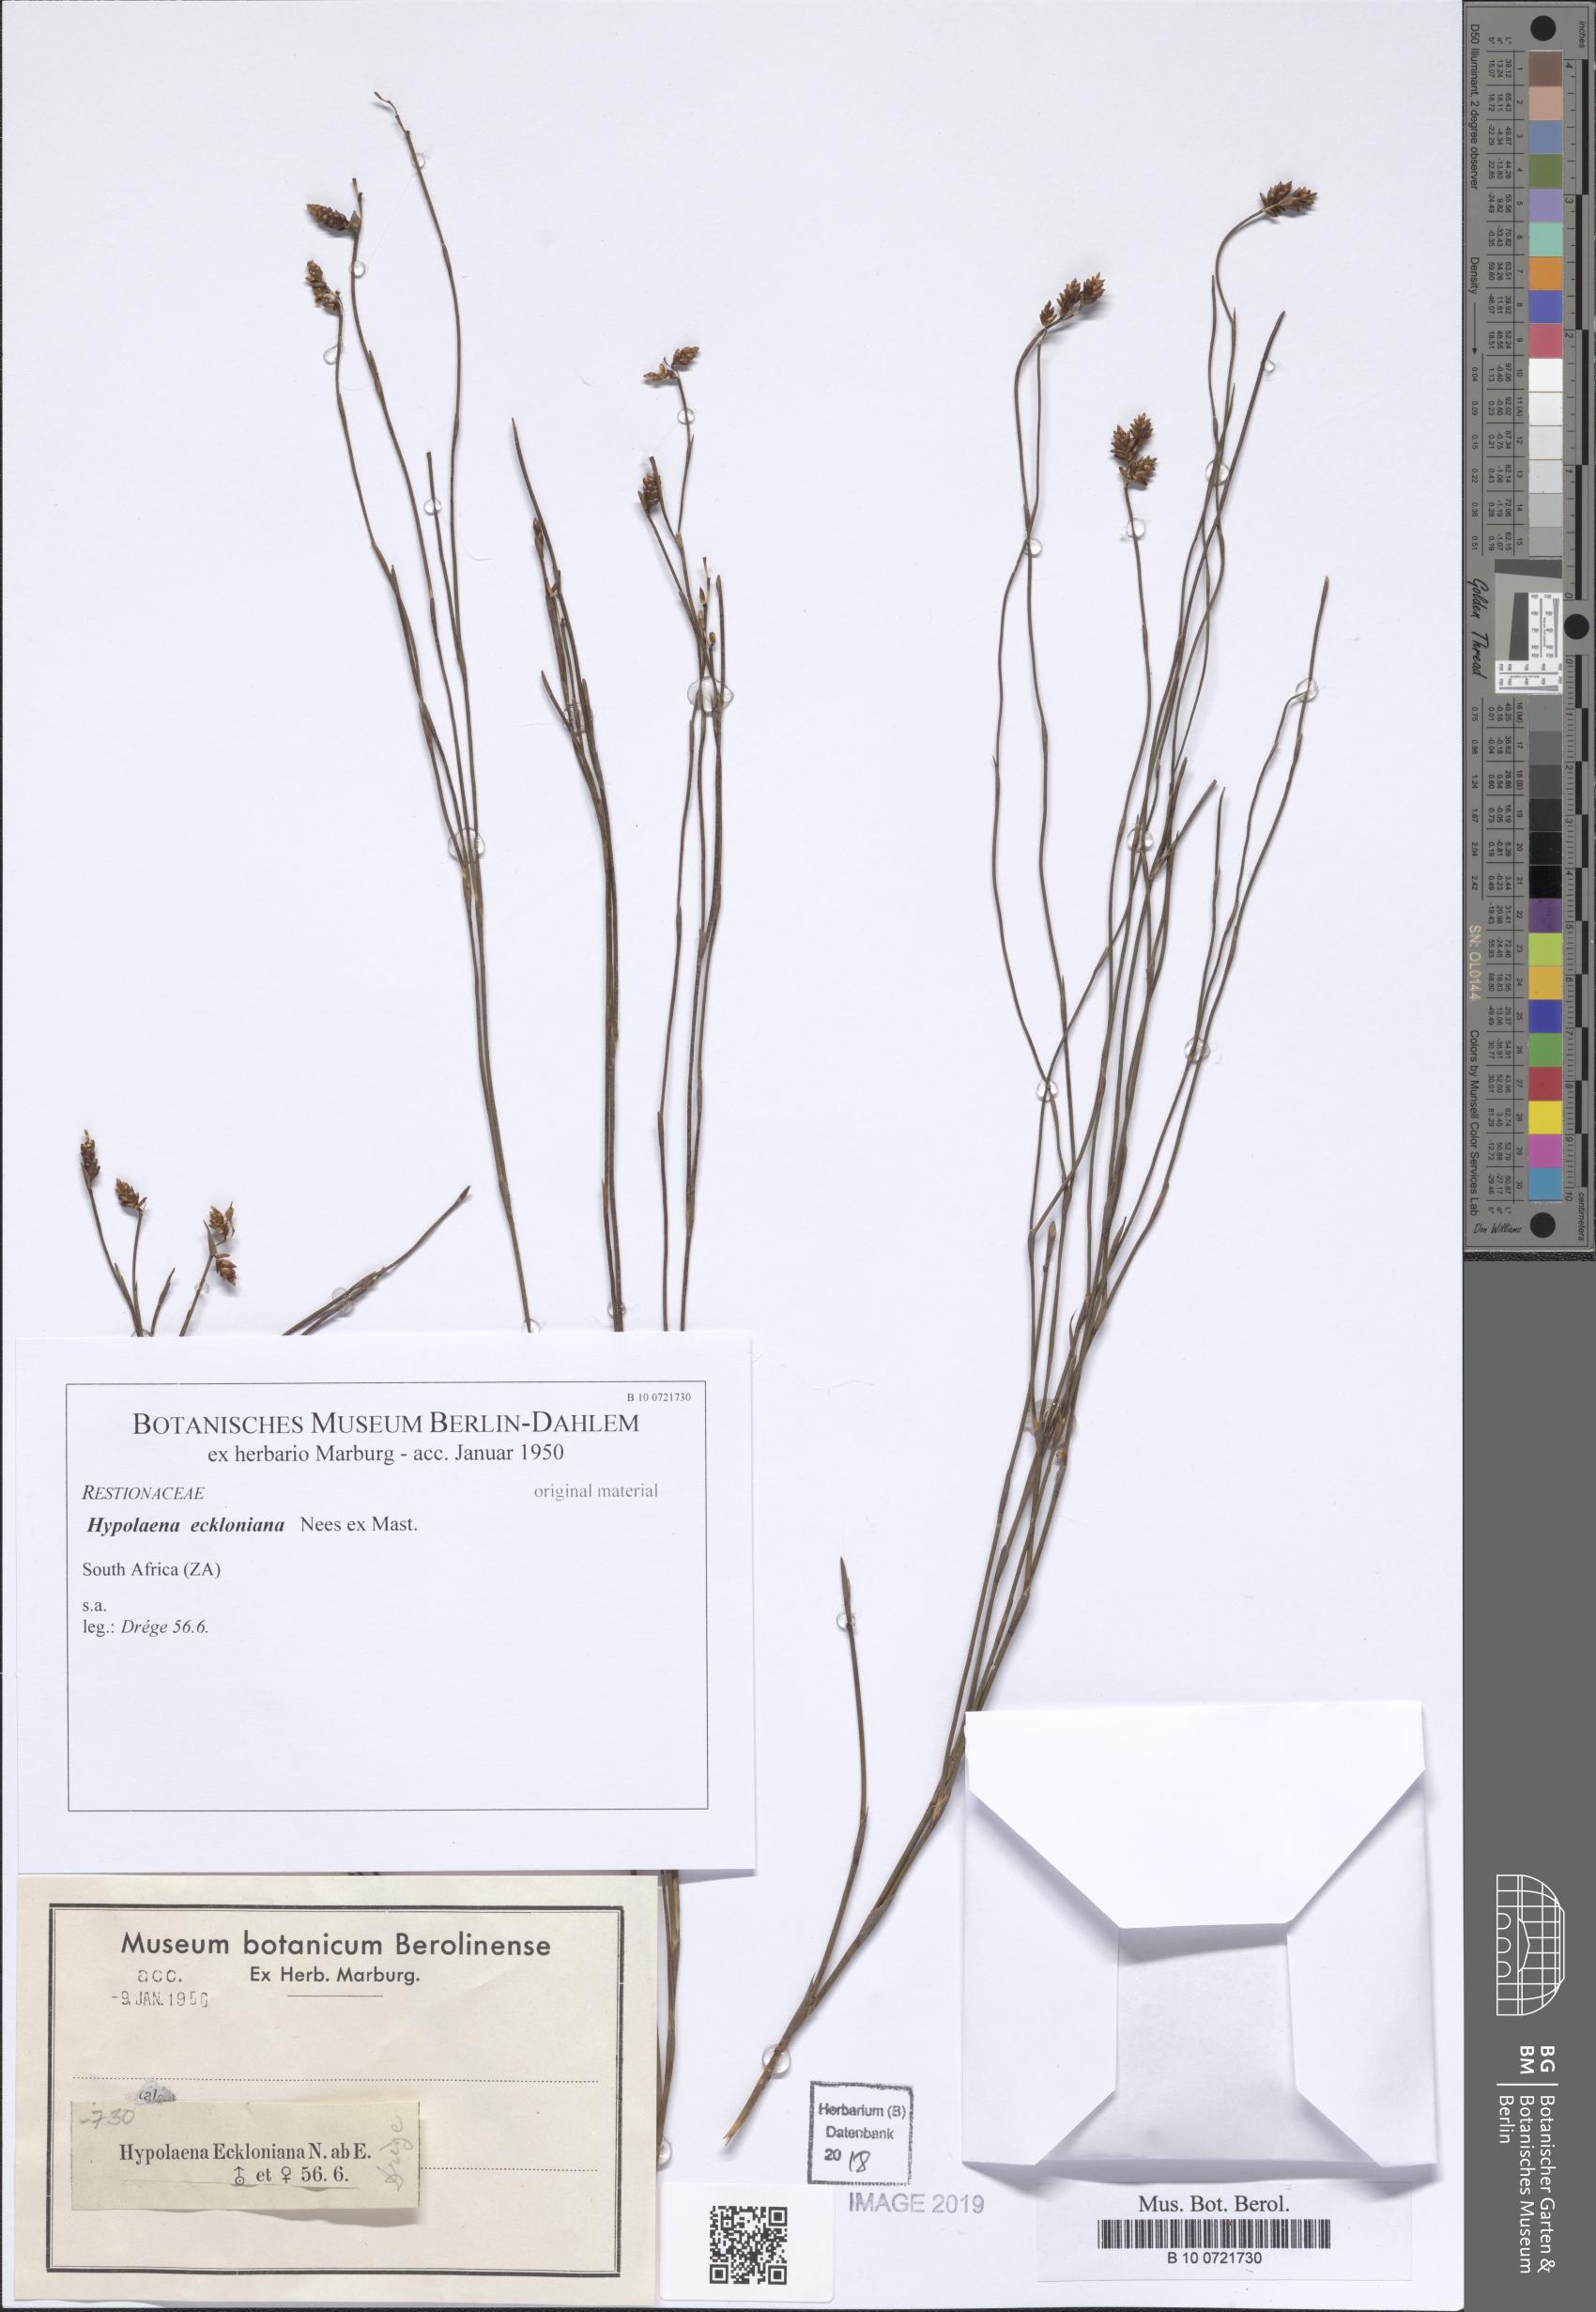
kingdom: Plantae
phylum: Tracheophyta
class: Liliopsida
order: Poales
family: Restionaceae
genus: Mastersiella
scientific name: Mastersiella digitata
